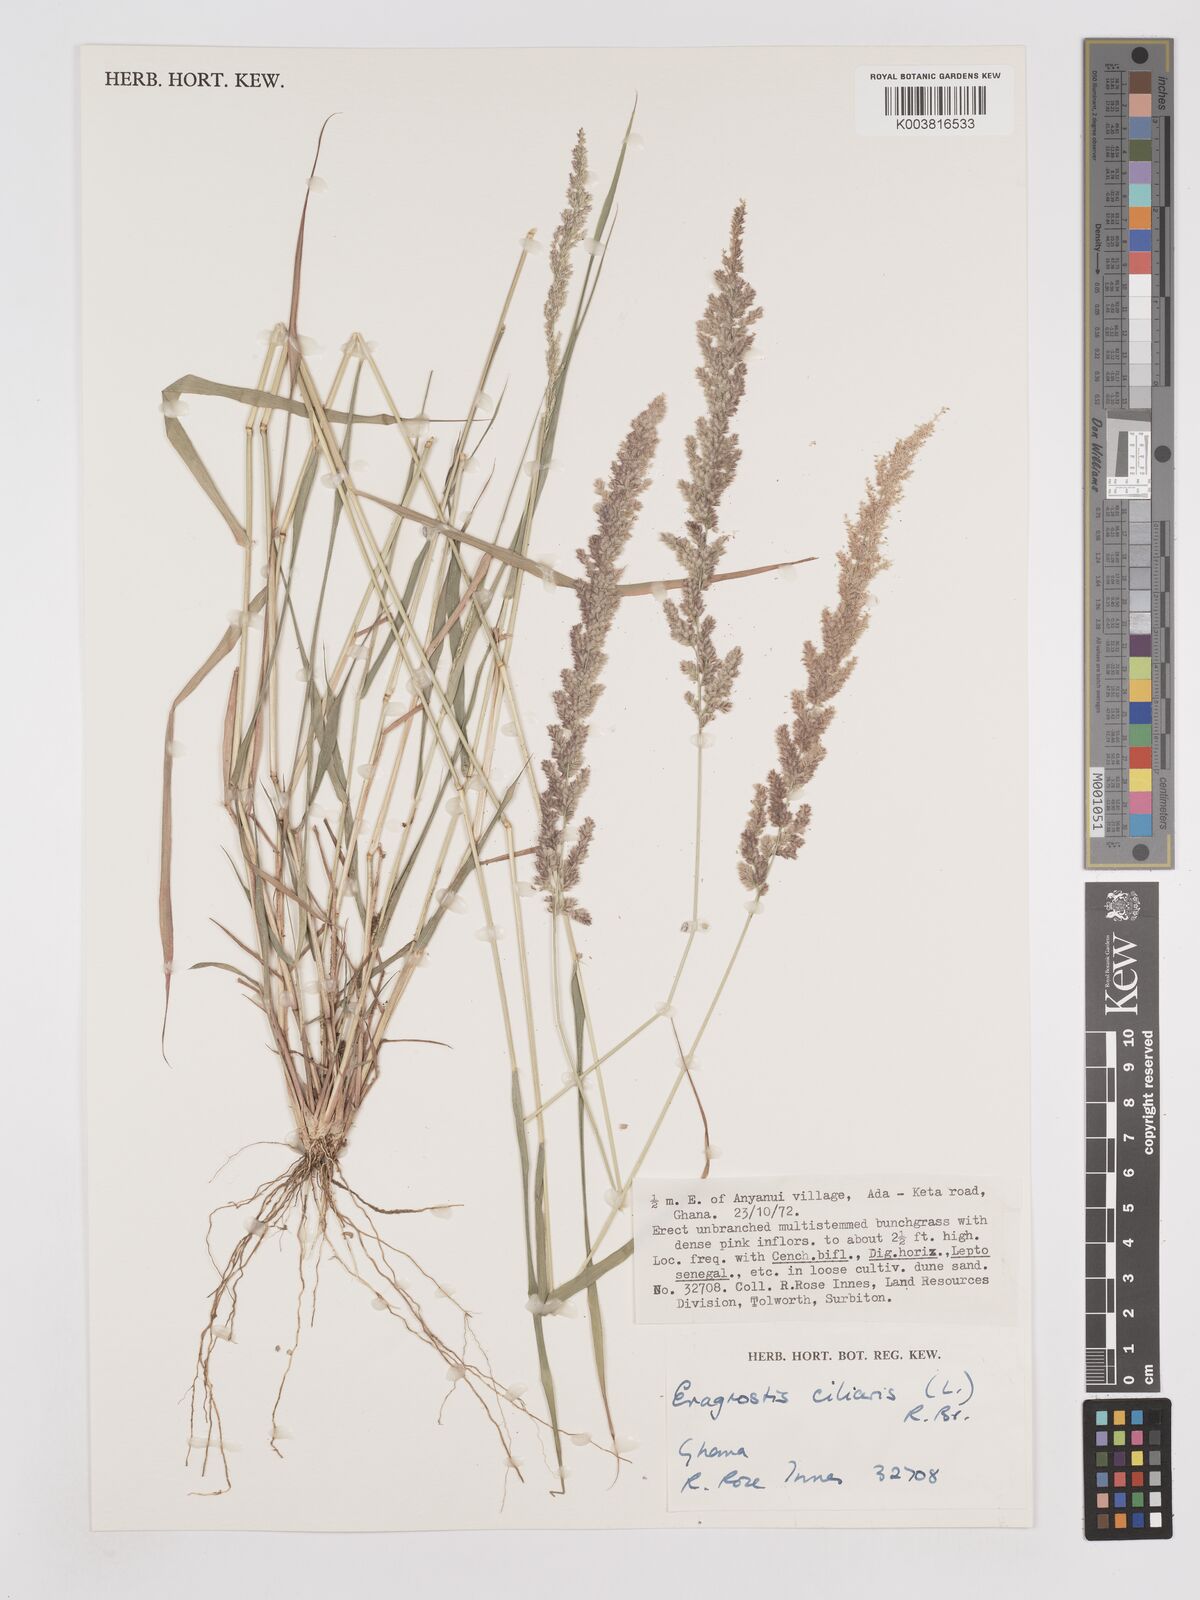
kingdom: Plantae
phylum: Tracheophyta
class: Liliopsida
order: Poales
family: Poaceae
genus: Eragrostis
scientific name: Eragrostis ciliaris
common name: Gophertail lovegrass
